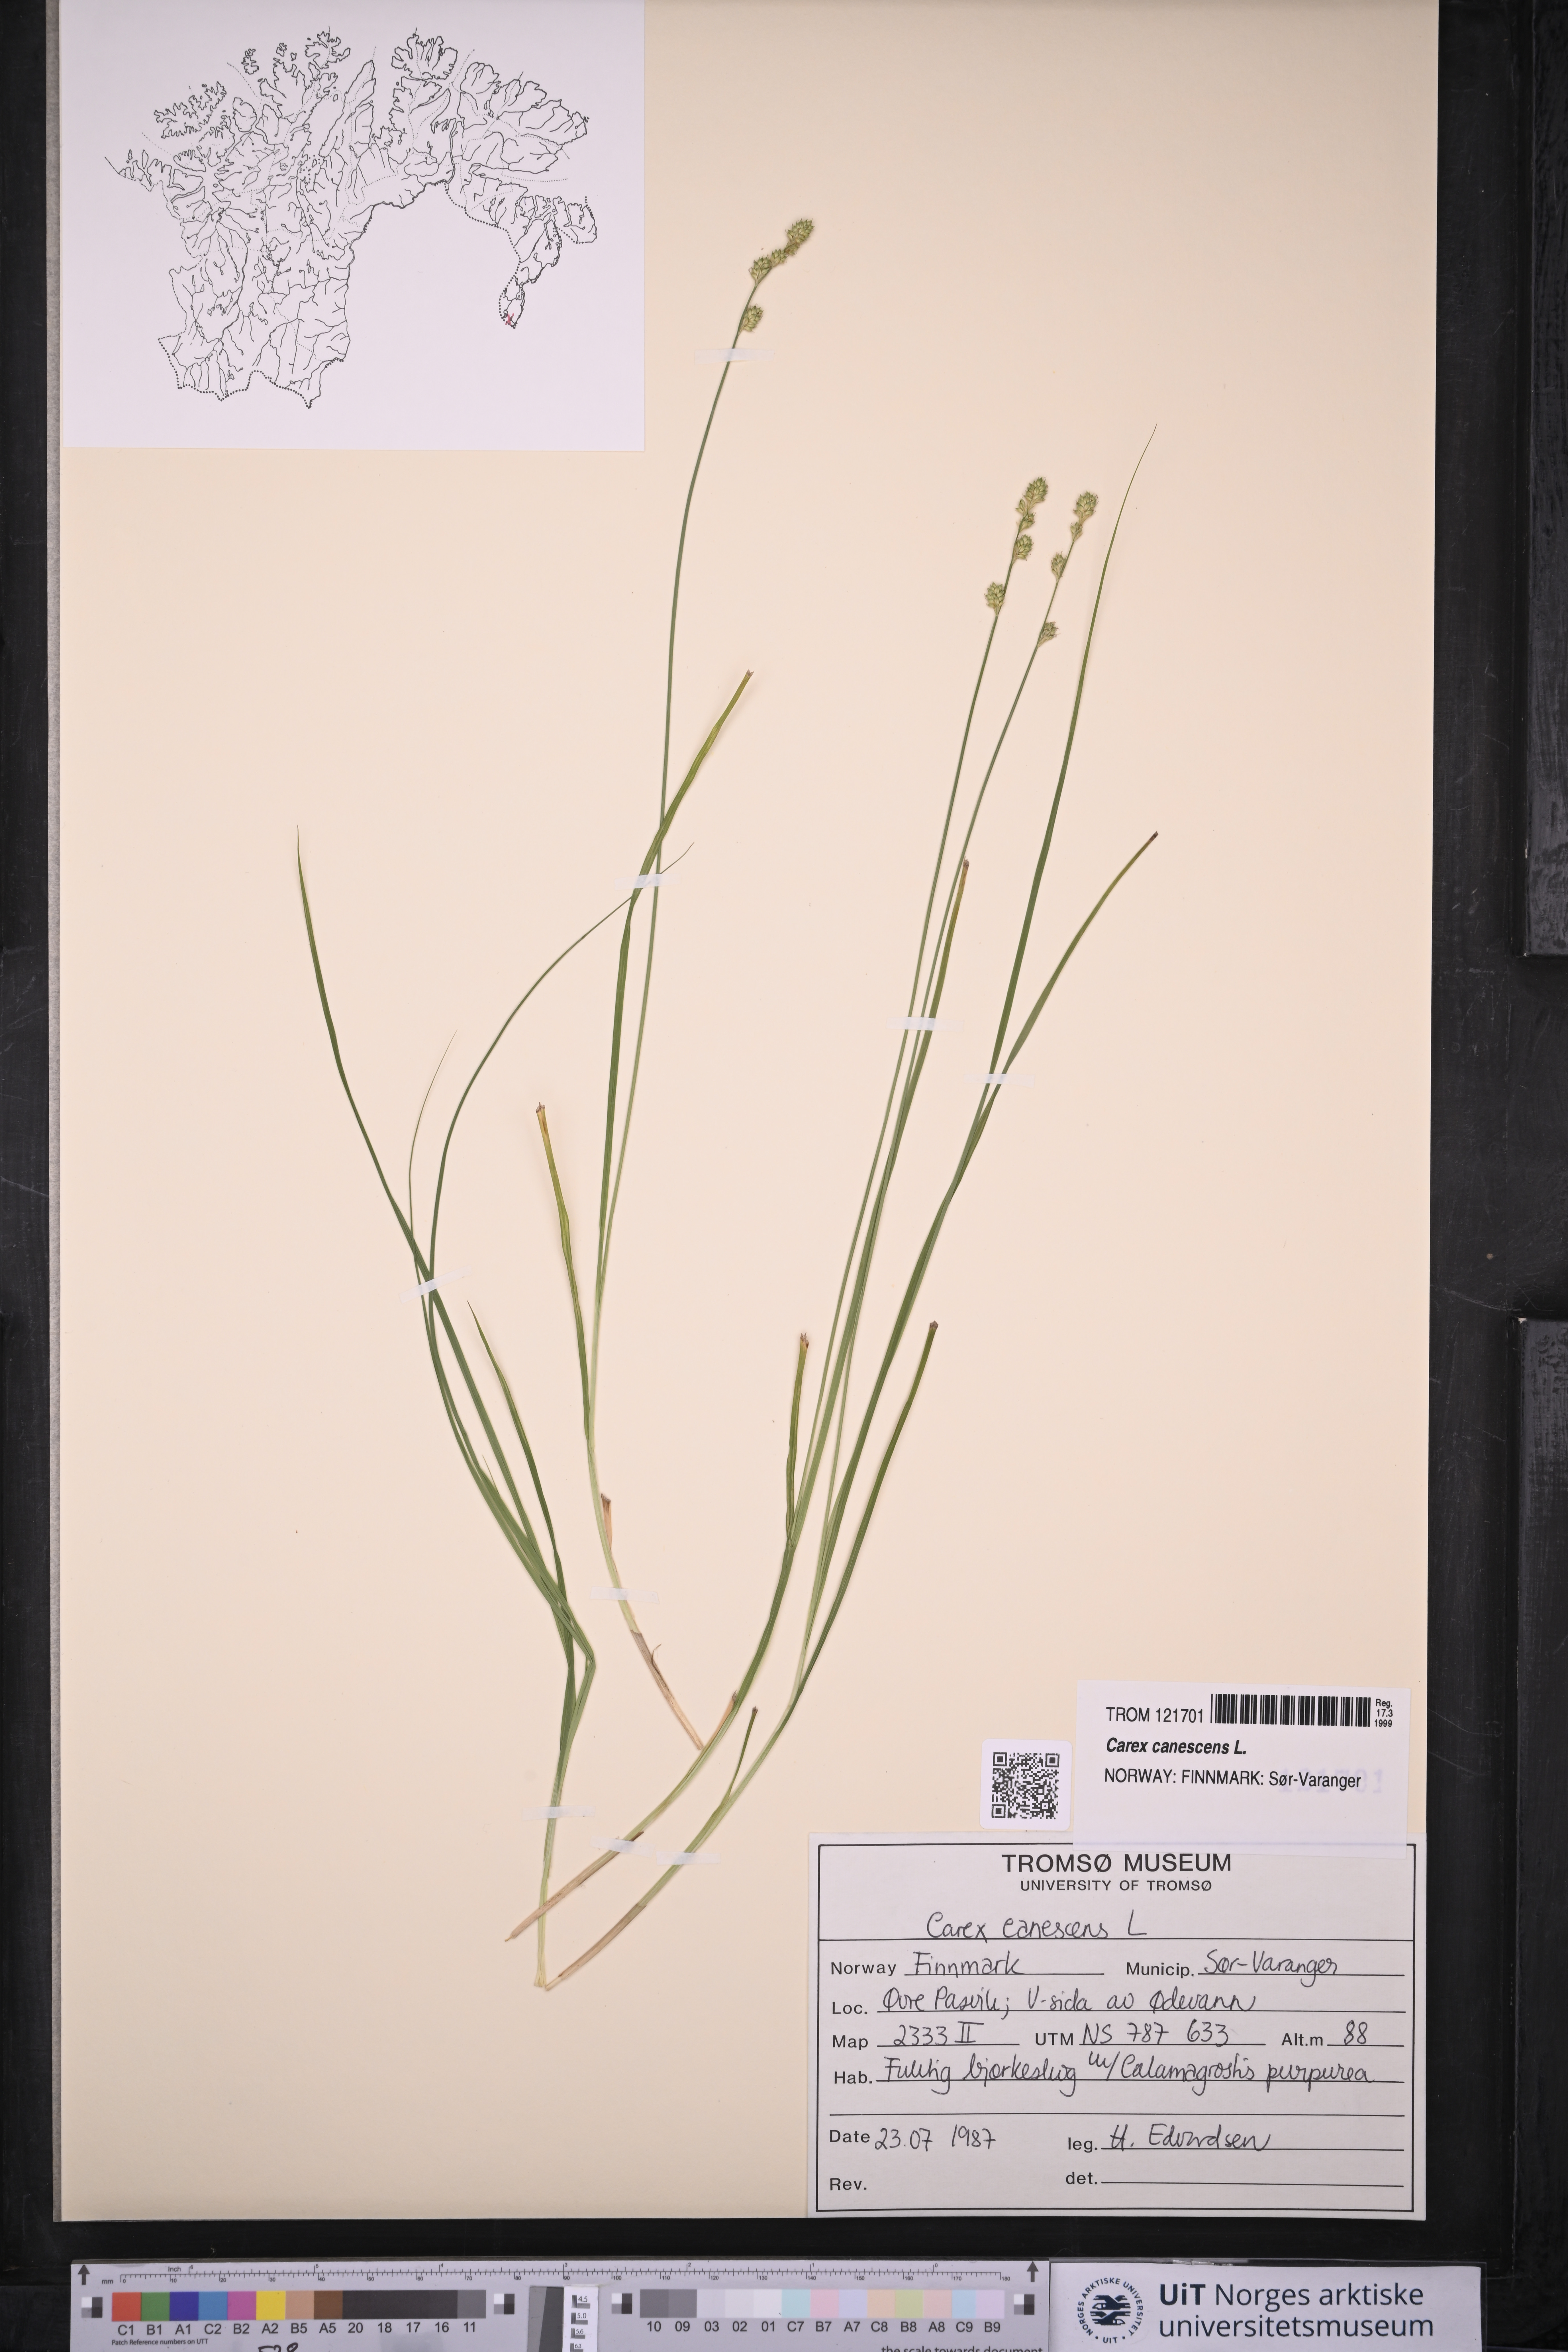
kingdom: Plantae
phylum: Tracheophyta
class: Liliopsida
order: Poales
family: Cyperaceae
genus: Carex
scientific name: Carex canescens
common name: White sedge
